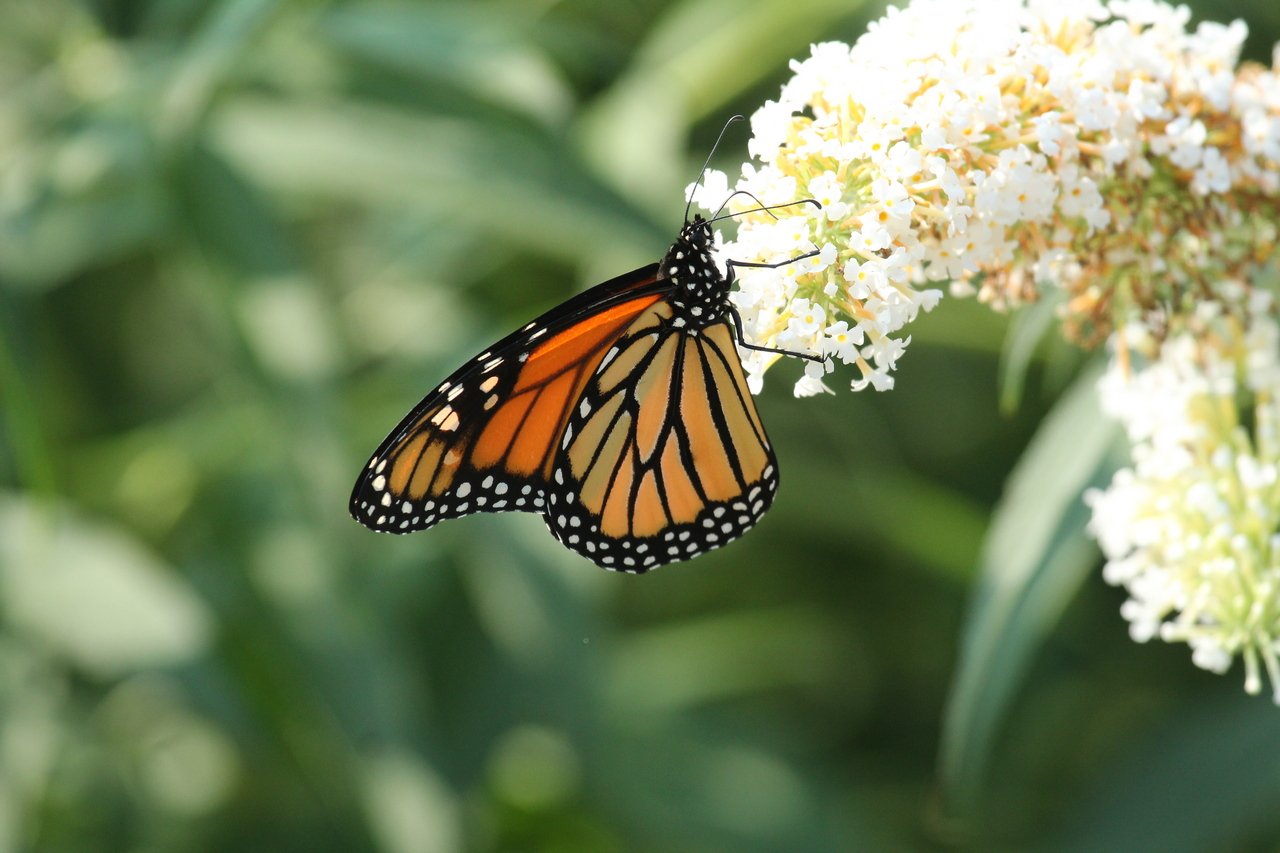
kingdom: Animalia
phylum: Arthropoda
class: Insecta
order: Lepidoptera
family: Nymphalidae
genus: Danaus
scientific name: Danaus plexippus
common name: Monarch
